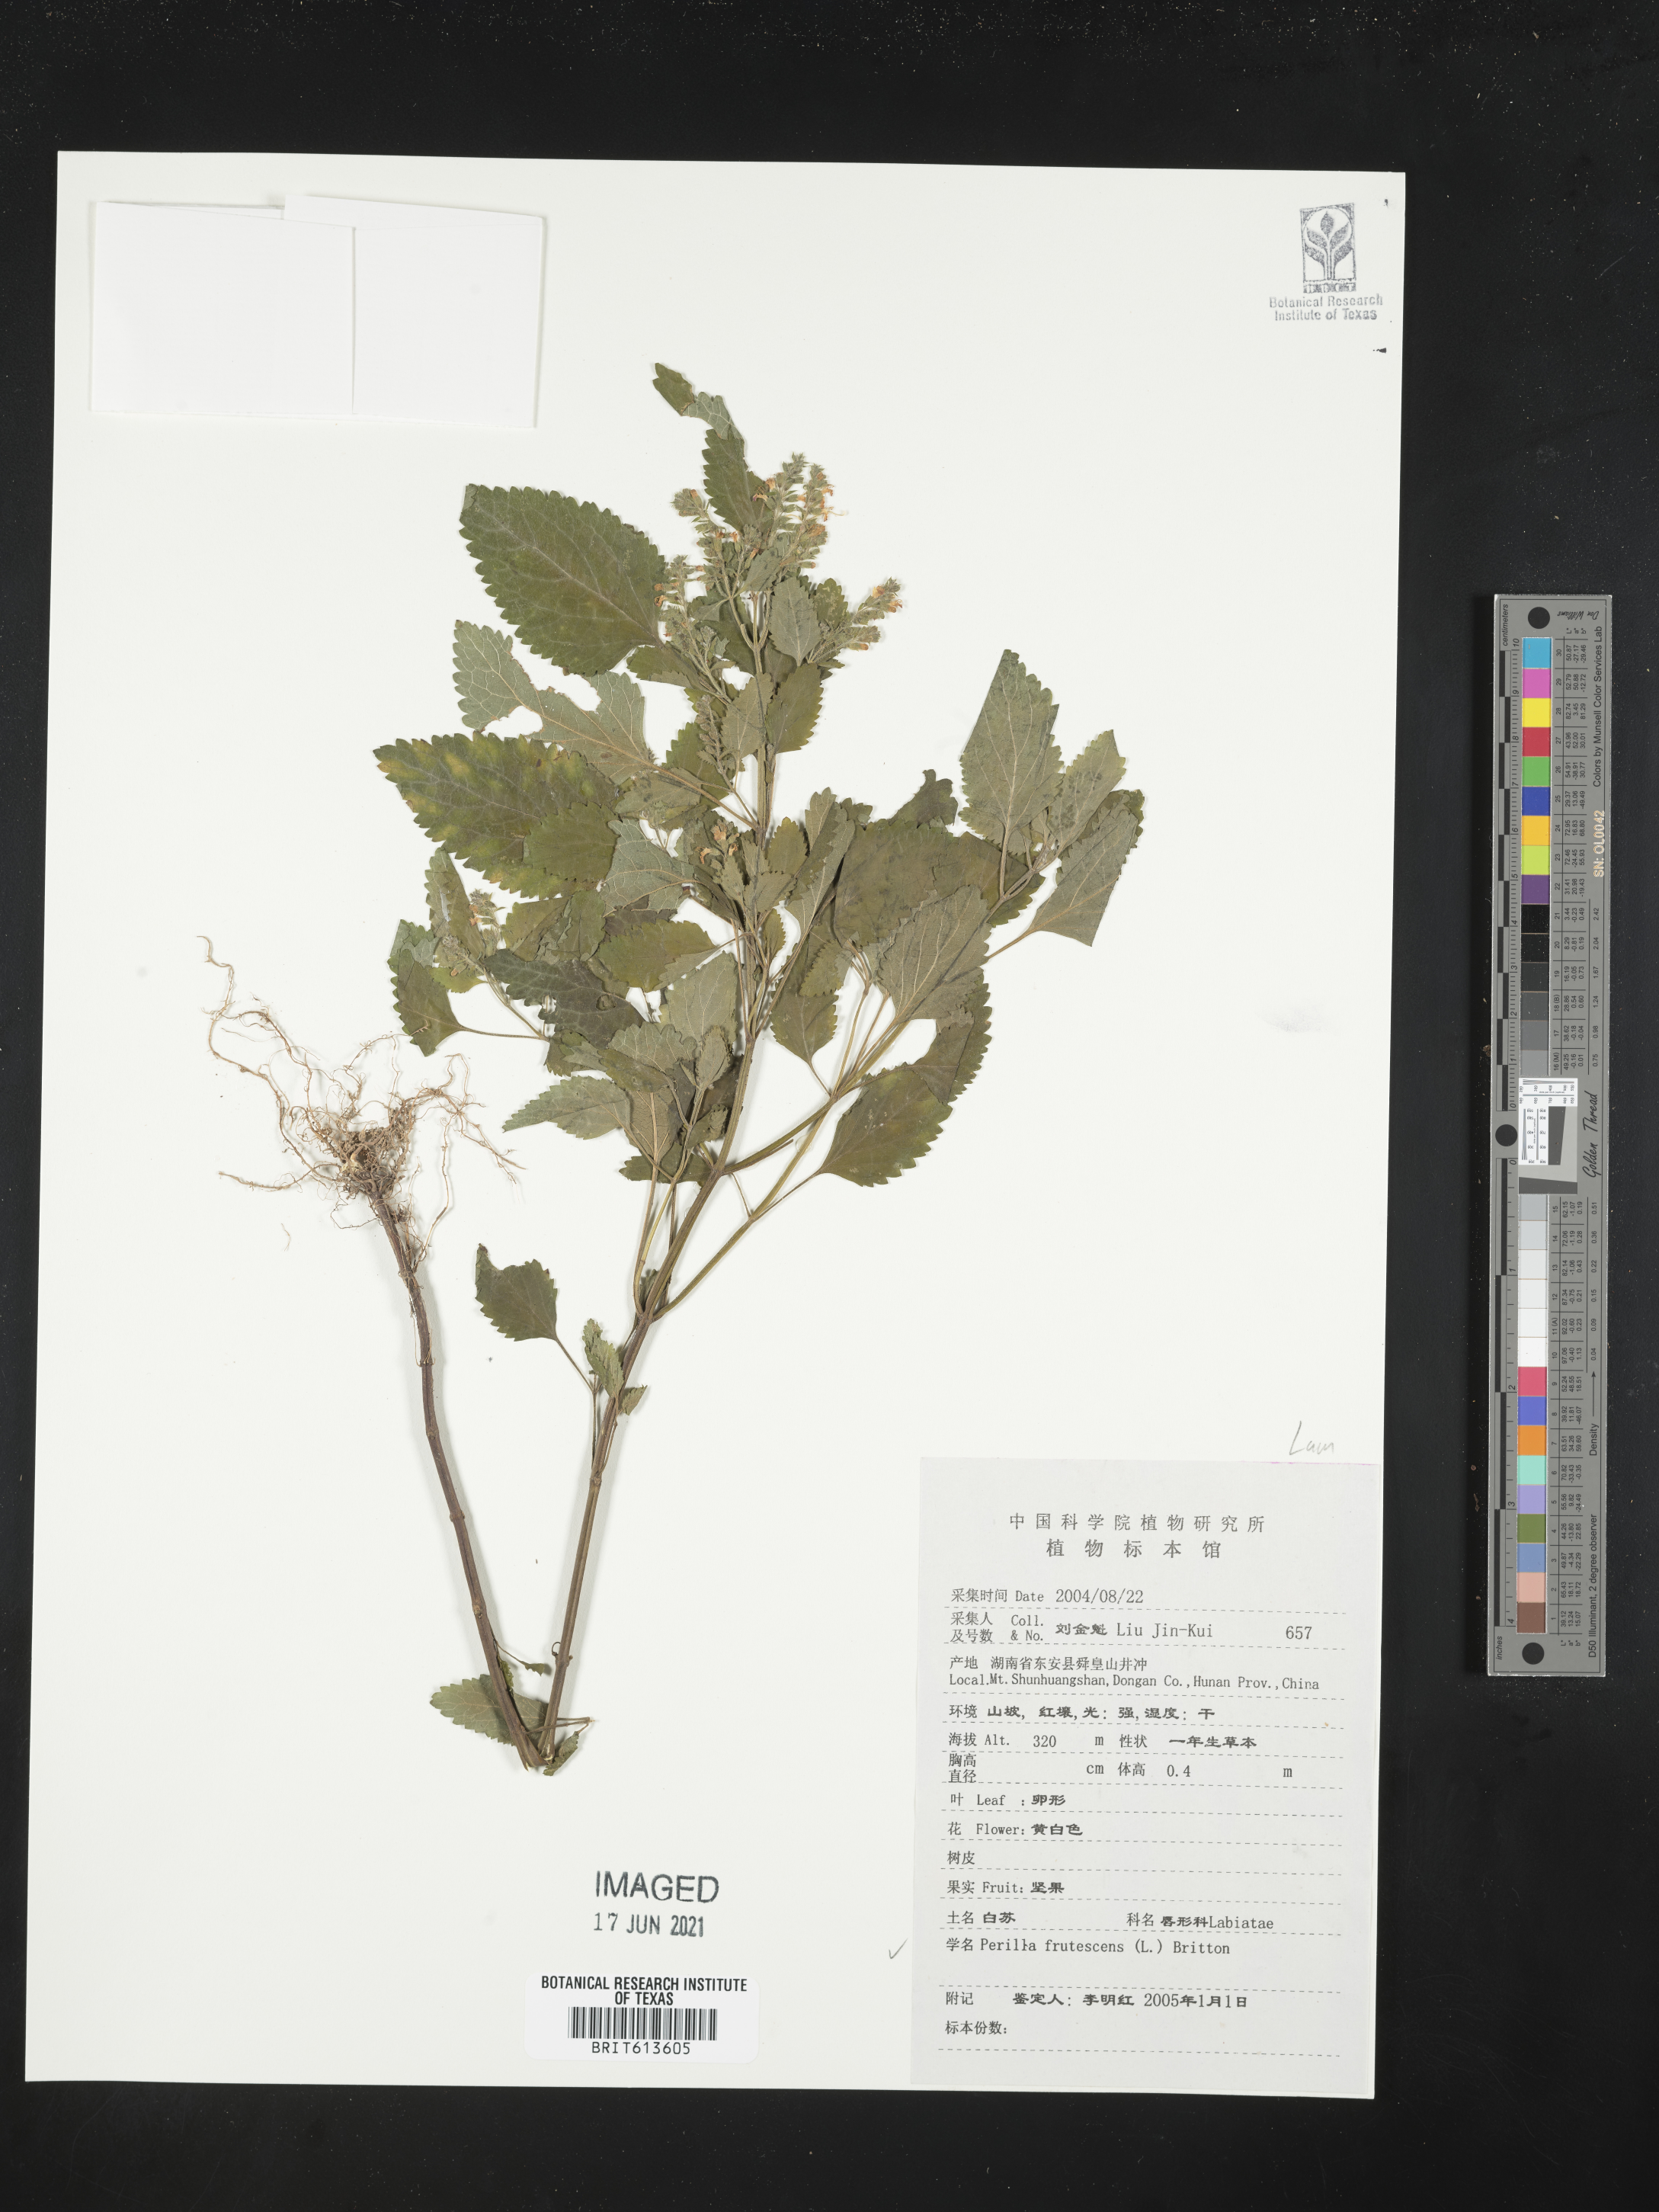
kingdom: Plantae
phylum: Tracheophyta
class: Magnoliopsida
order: Lamiales
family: Lamiaceae
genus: Perilla
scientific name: Perilla frutescens
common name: Perilla
